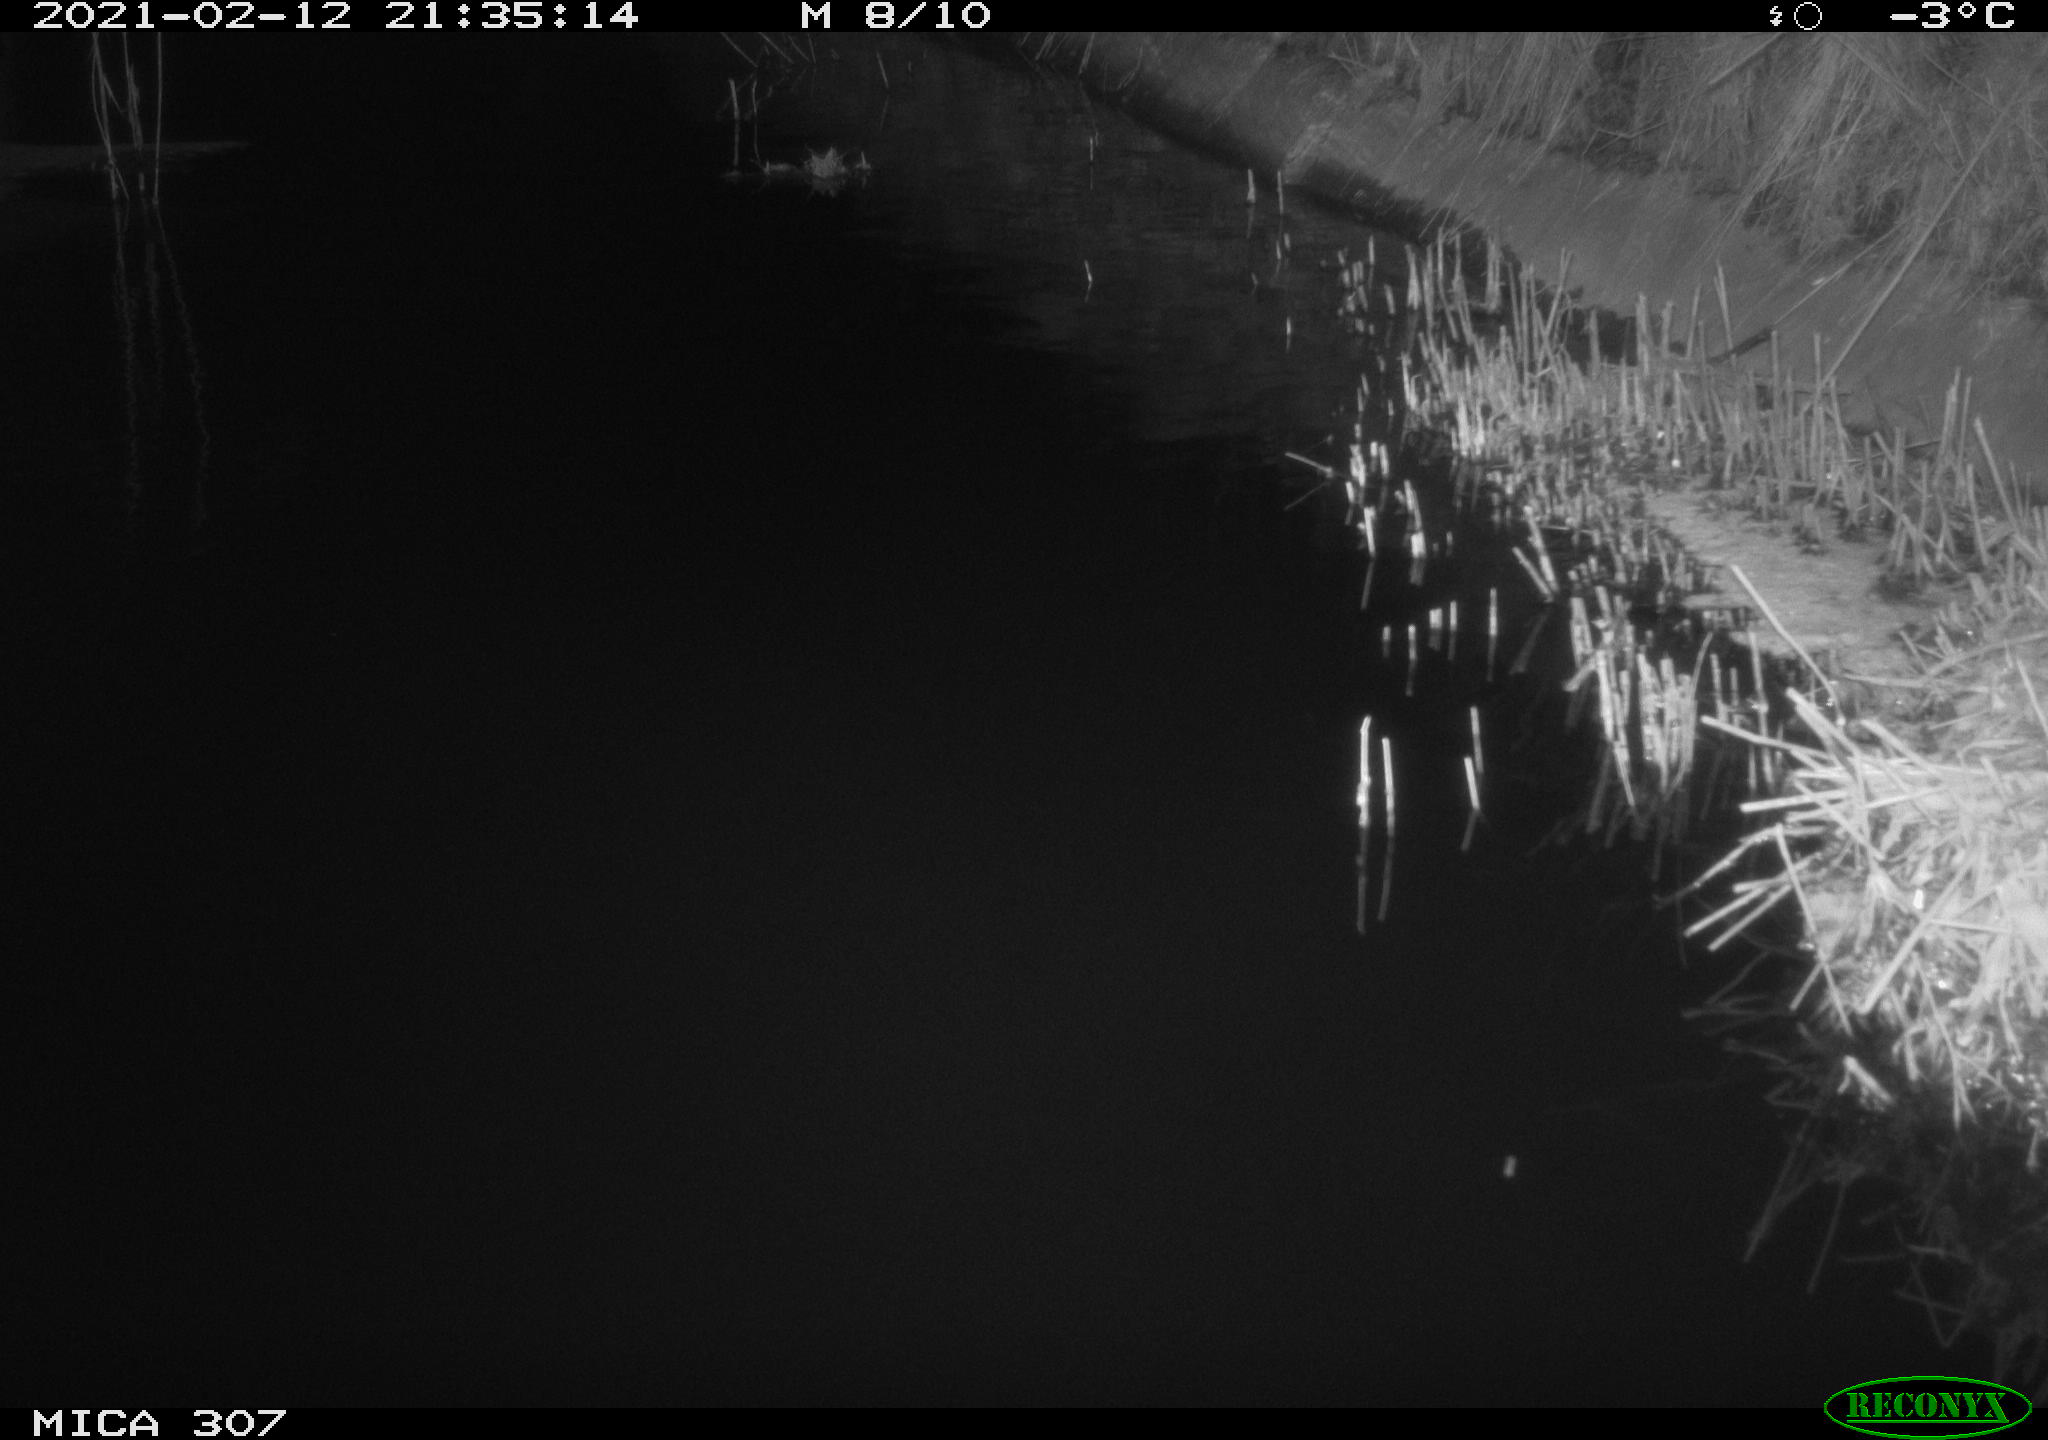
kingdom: Animalia
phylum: Chordata
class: Mammalia
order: Rodentia
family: Muridae
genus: Rattus
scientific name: Rattus norvegicus
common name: Brown rat
